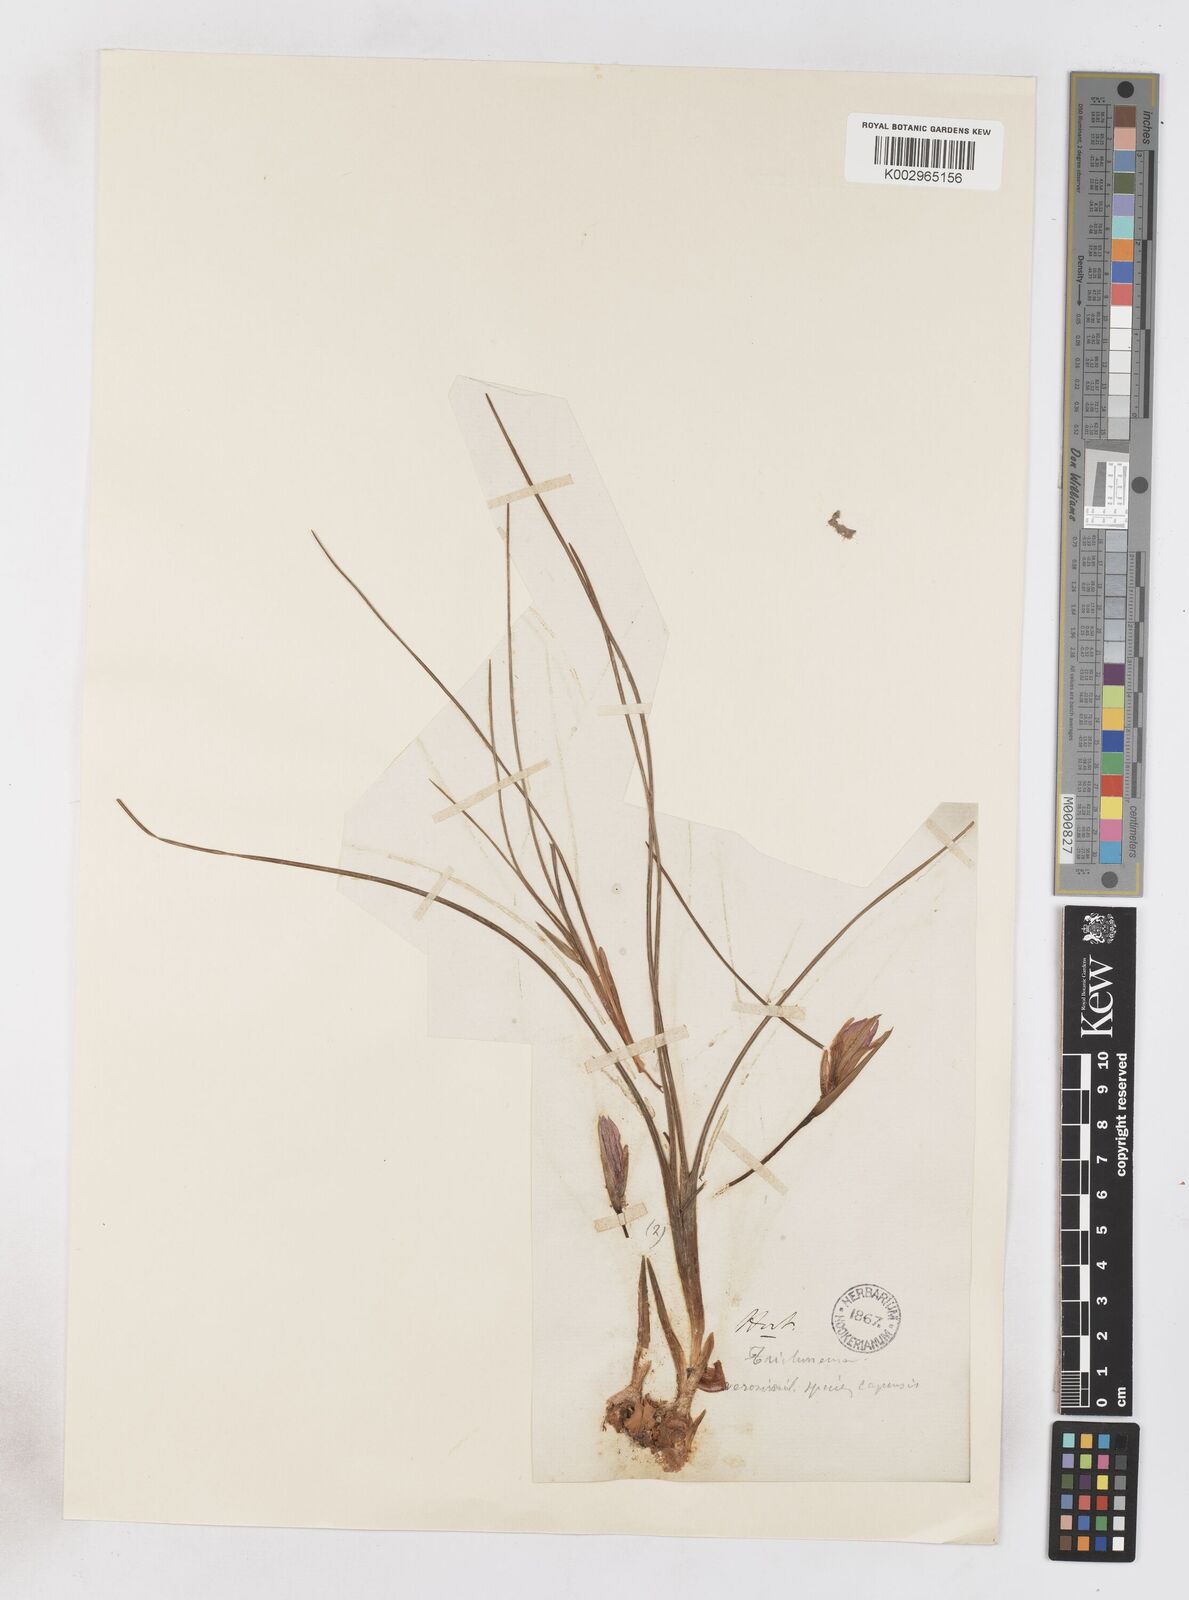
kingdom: Plantae
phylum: Tracheophyta
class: Liliopsida
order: Asparagales
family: Iridaceae
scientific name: Iridaceae
